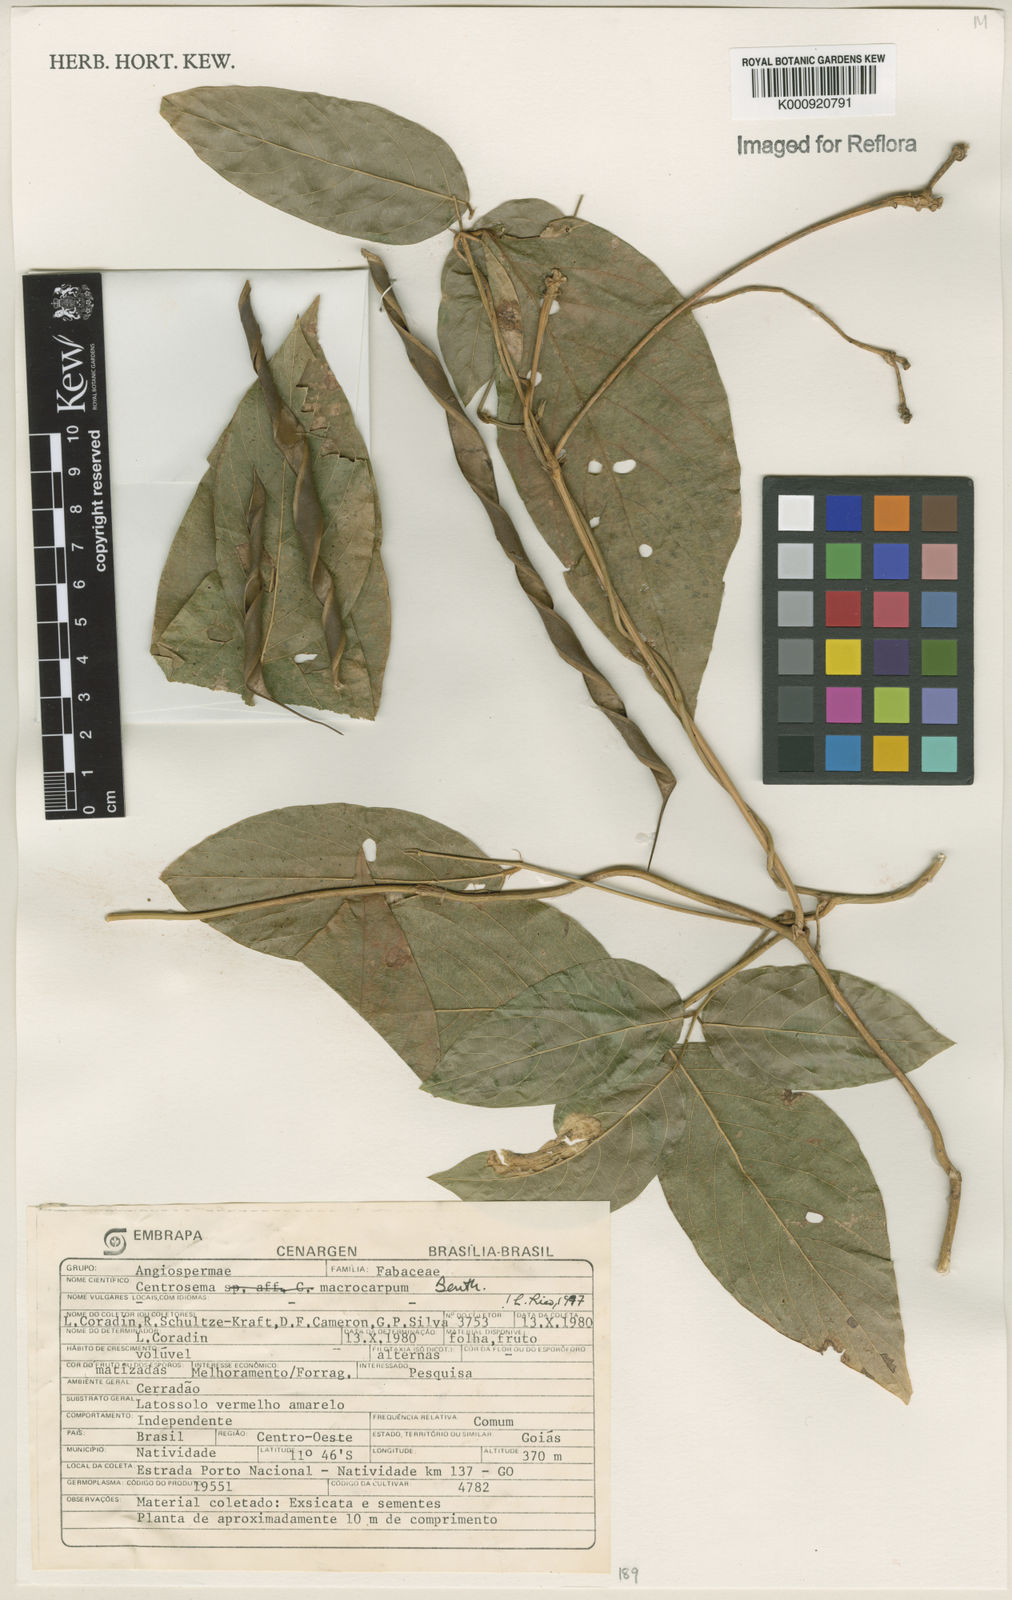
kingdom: Plantae
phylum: Tracheophyta
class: Magnoliopsida
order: Fabales
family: Fabaceae
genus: Centrosema
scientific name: Centrosema macrocarpum
